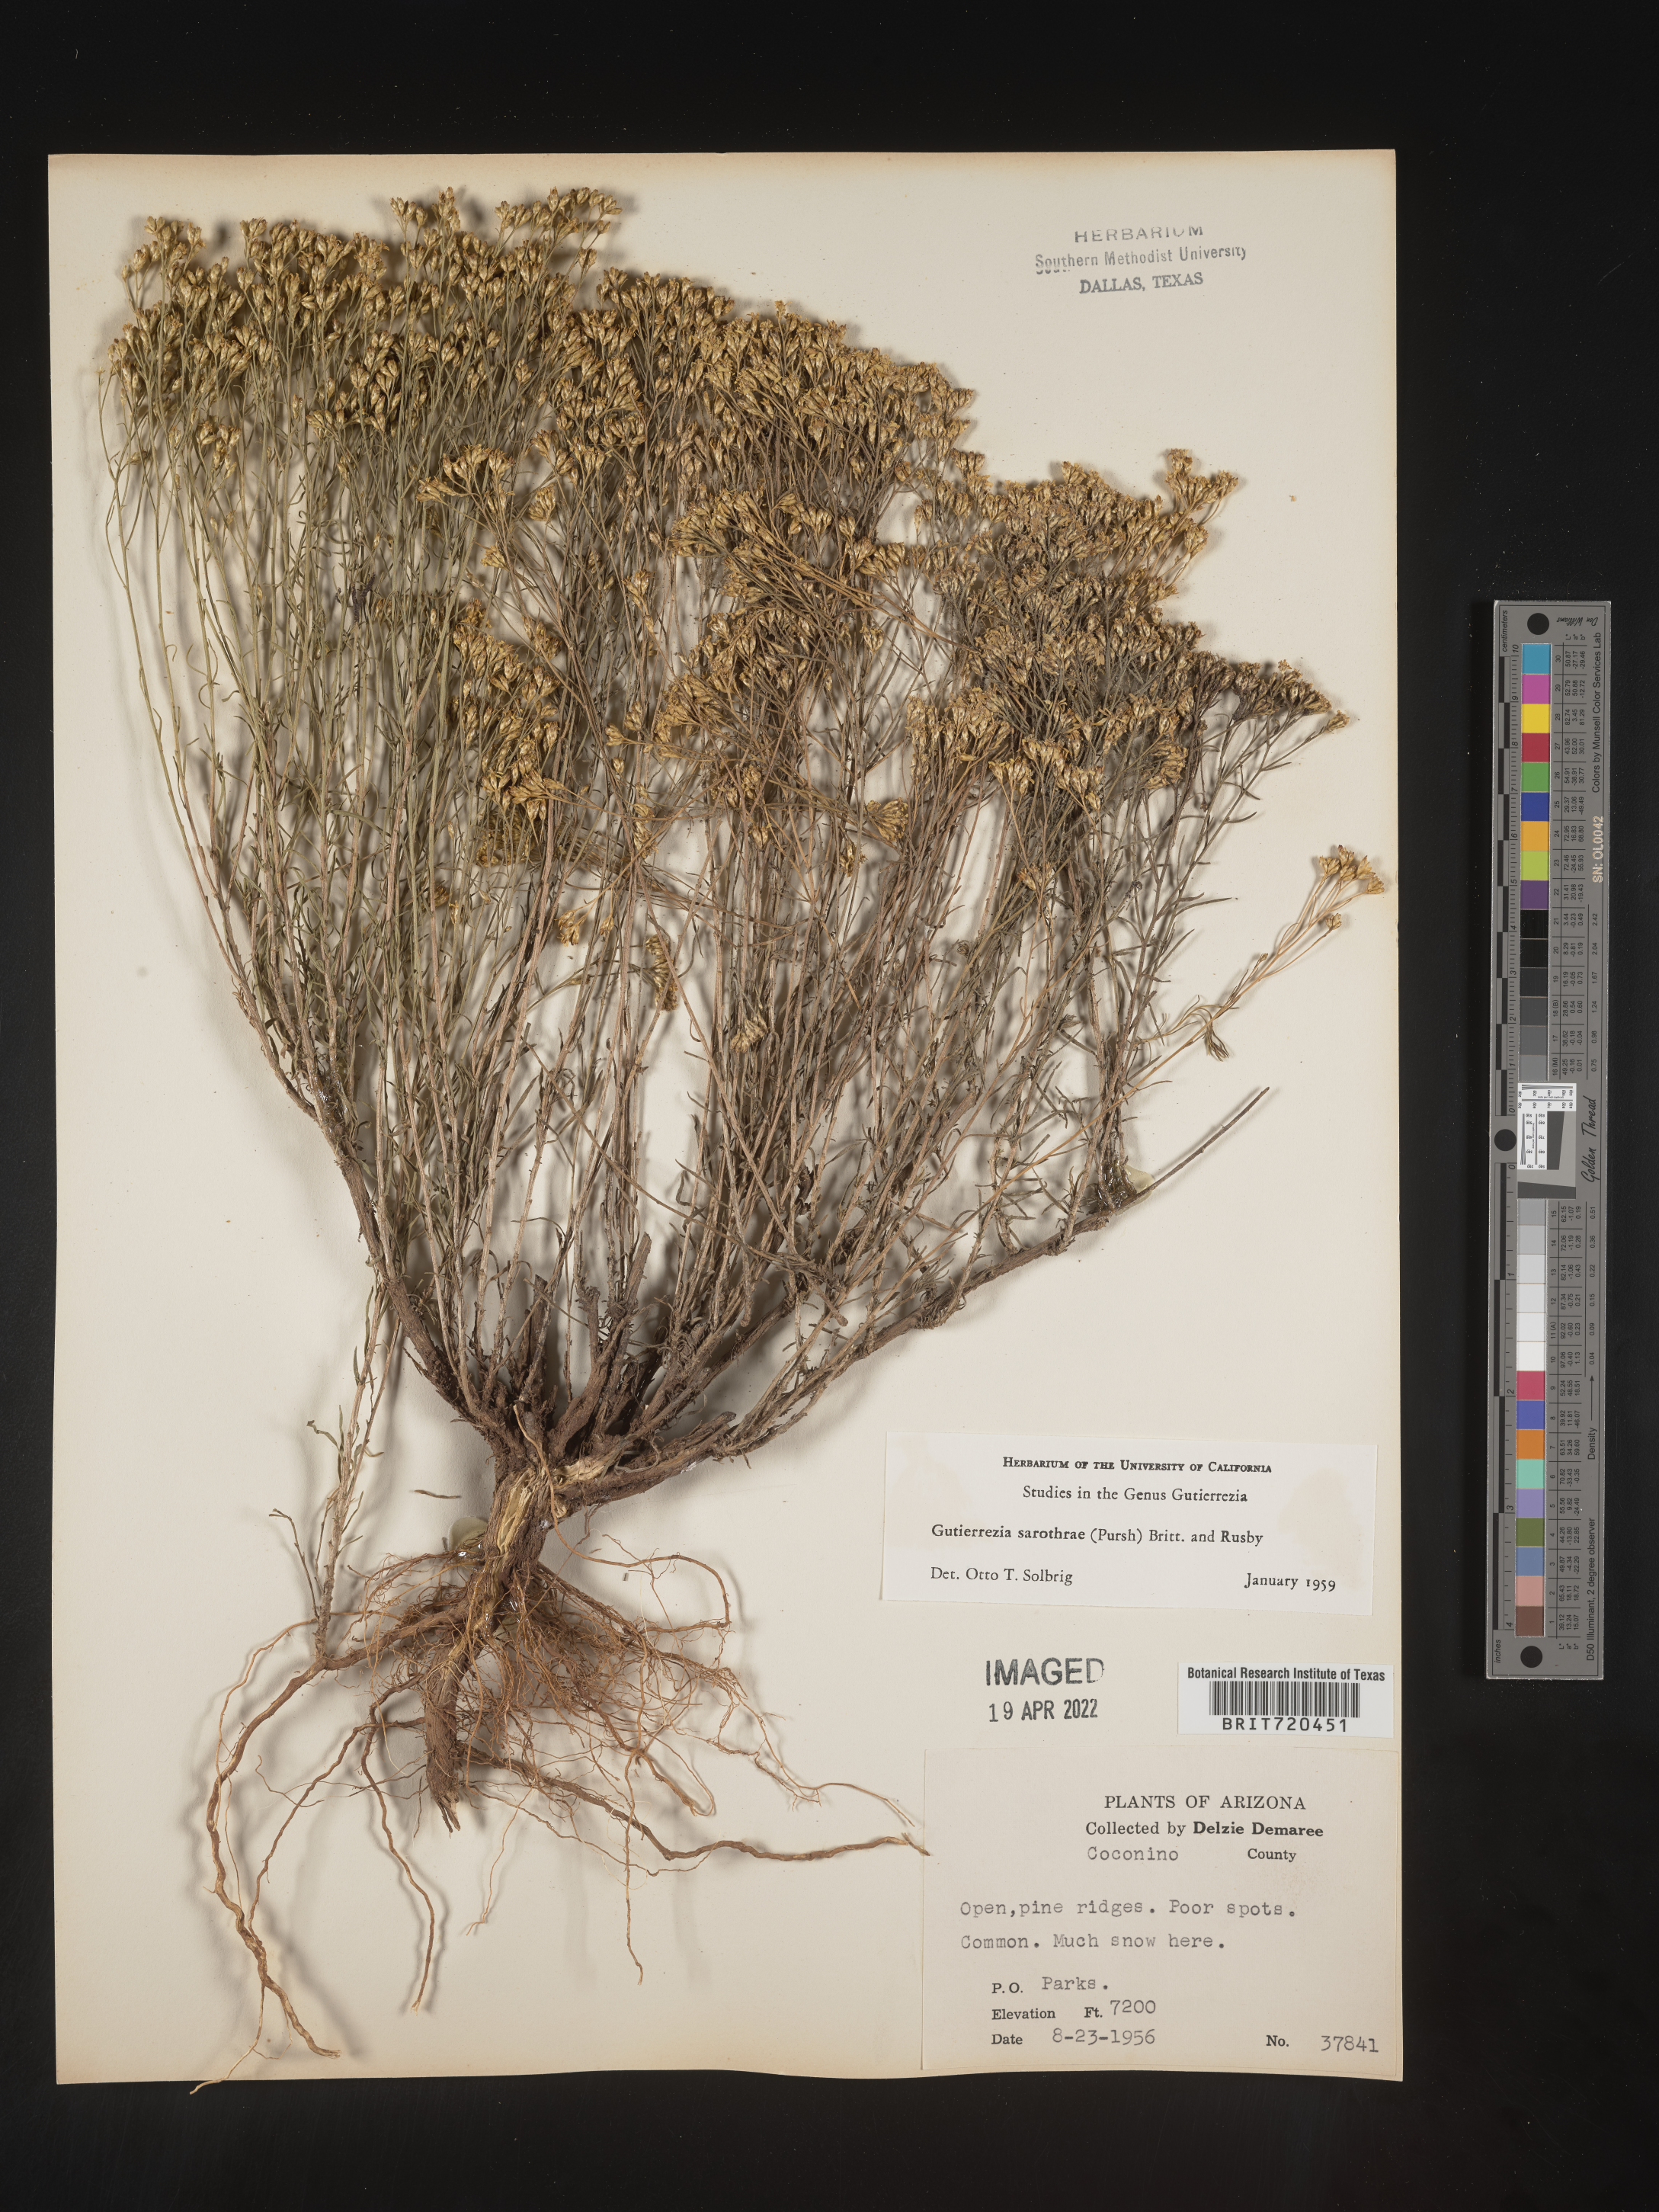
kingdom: Plantae
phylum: Tracheophyta
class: Magnoliopsida
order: Asterales
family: Asteraceae
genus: Gutierrezia
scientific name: Gutierrezia sarothrae
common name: Broom snakeweed
